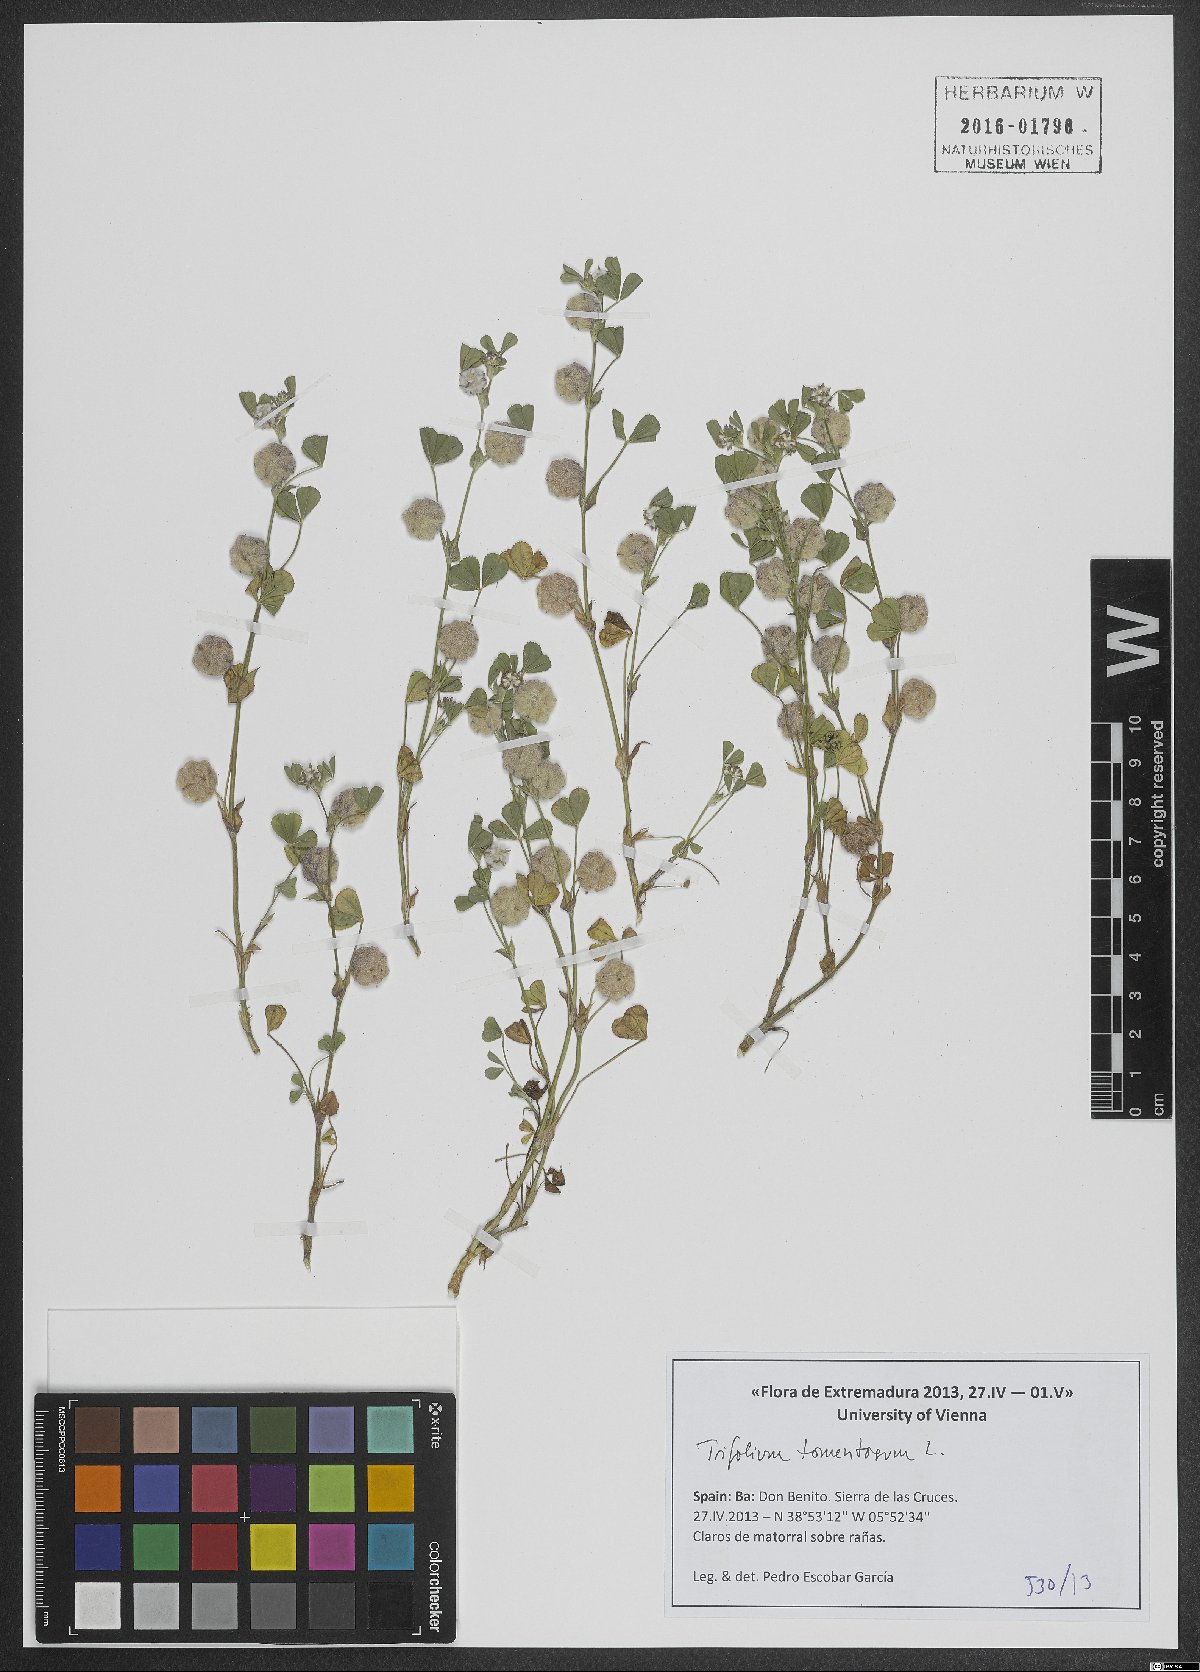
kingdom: Plantae
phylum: Tracheophyta
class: Magnoliopsida
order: Fabales
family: Fabaceae
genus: Trifolium
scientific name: Trifolium tomentosum
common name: Woolly clover
